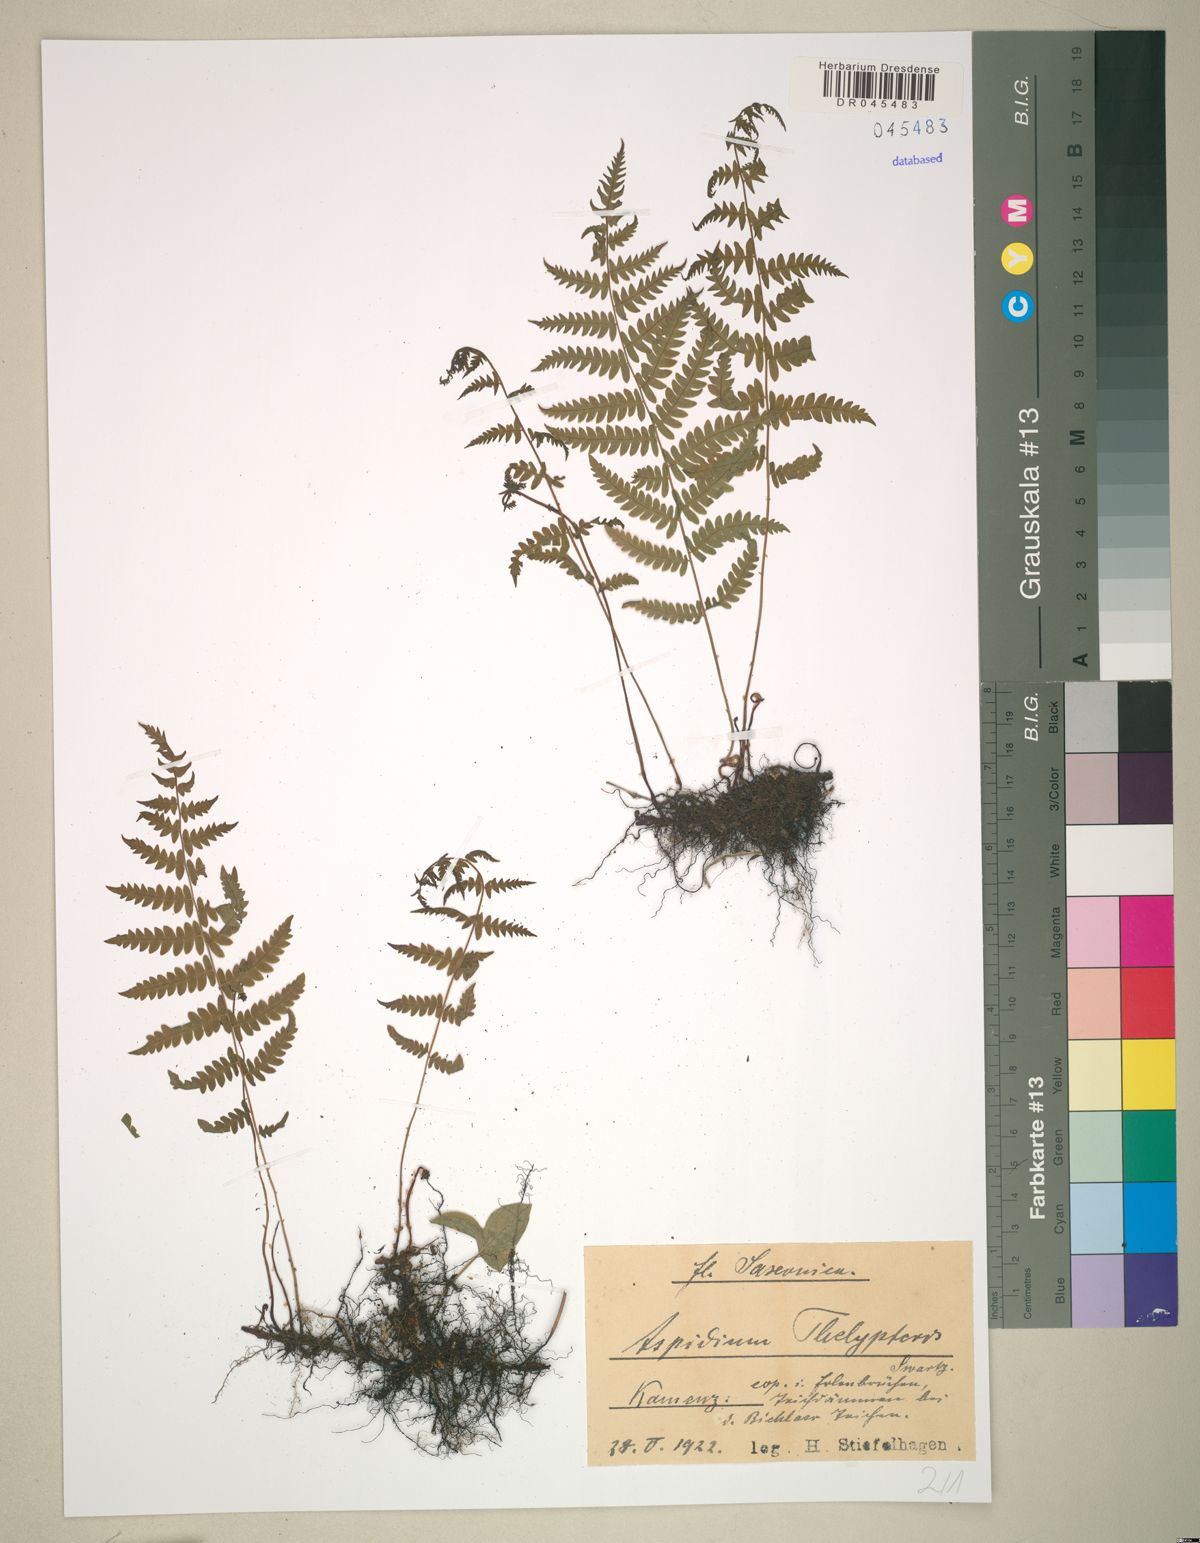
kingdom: Plantae
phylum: Tracheophyta
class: Polypodiopsida
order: Polypodiales
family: Thelypteridaceae
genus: Thelypteris
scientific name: Thelypteris palustris
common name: Marsh fern
